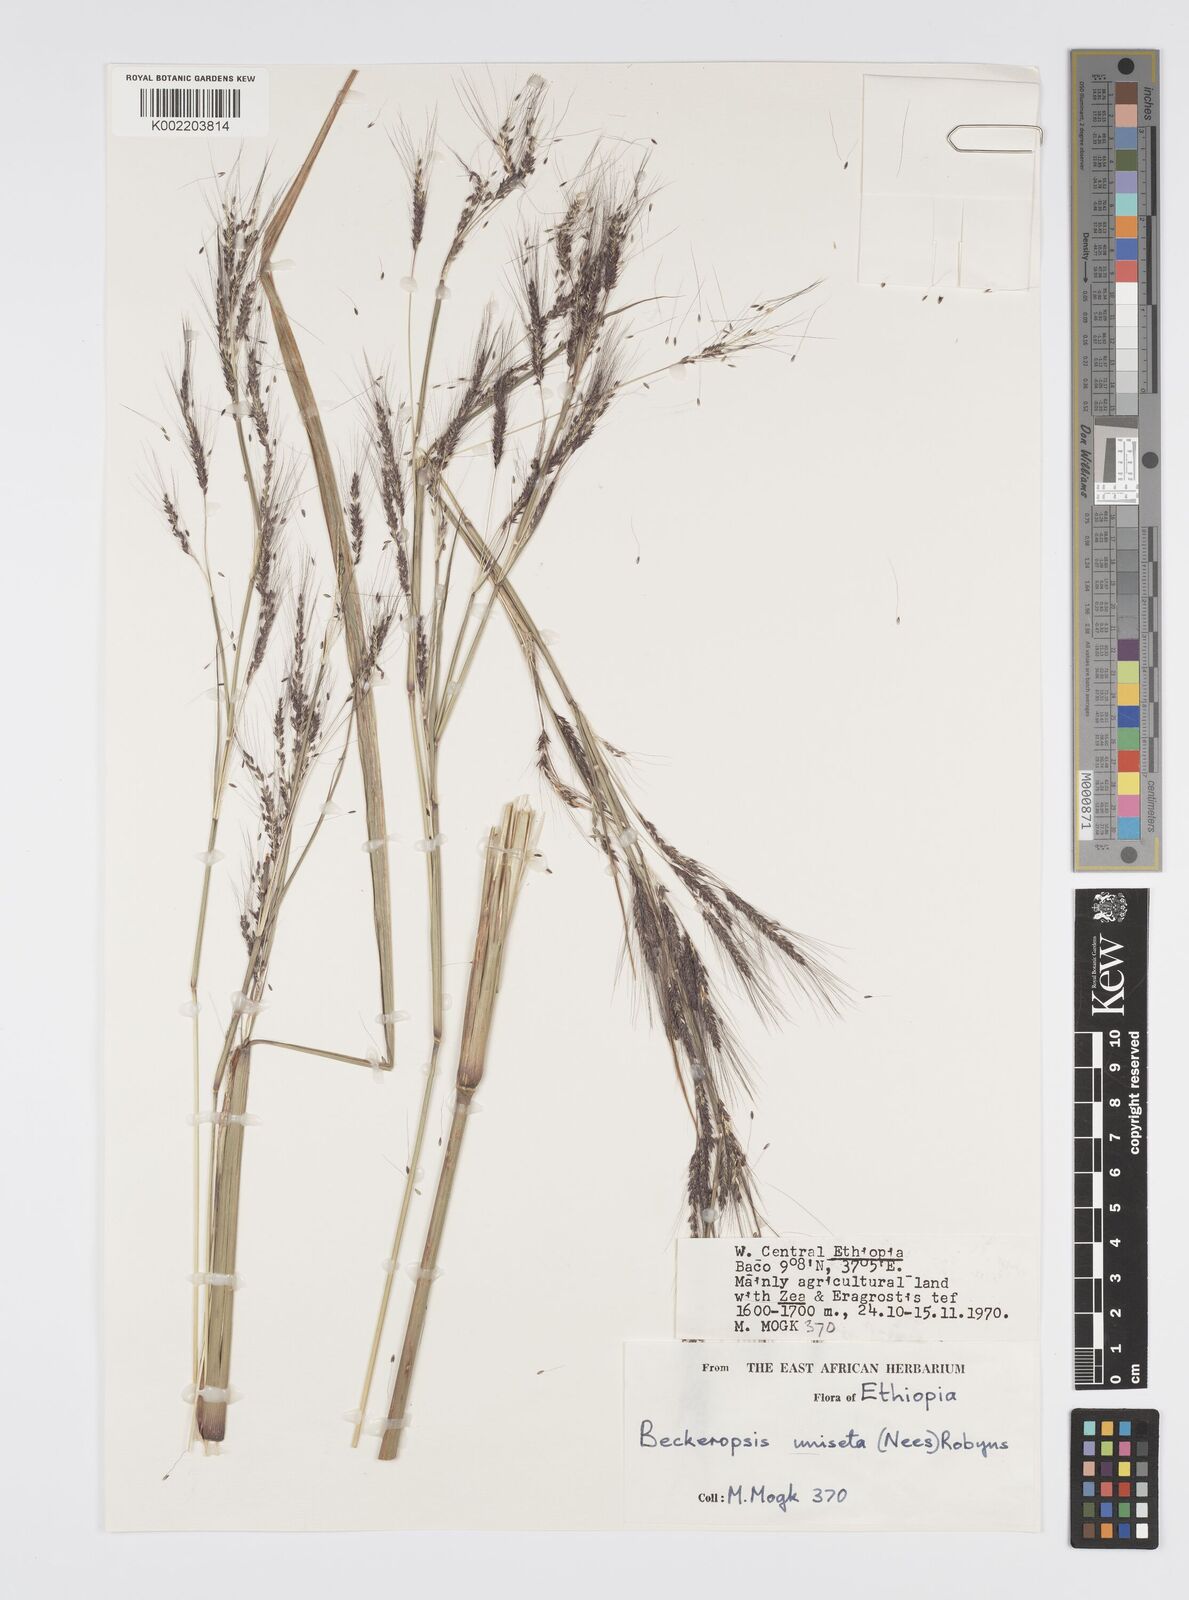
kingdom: Plantae
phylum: Tracheophyta
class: Liliopsida
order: Poales
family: Poaceae
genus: Cenchrus
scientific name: Cenchrus unisetus
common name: Natal grass
